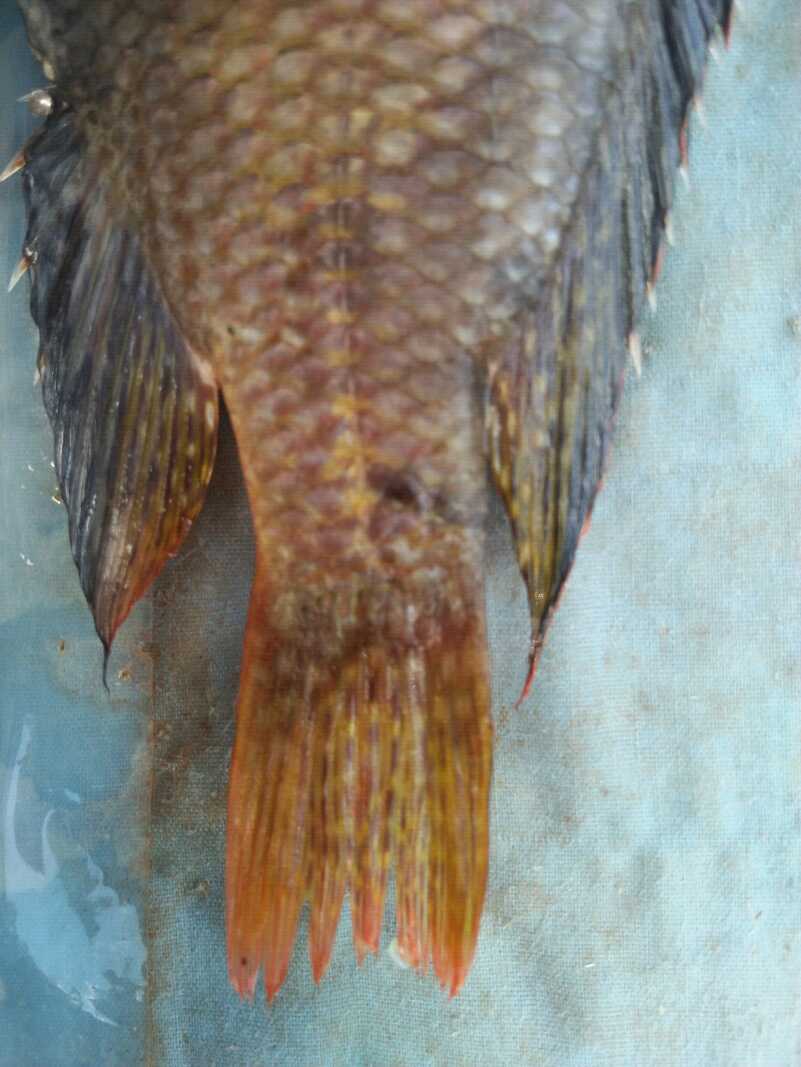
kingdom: Animalia
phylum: Chordata
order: Perciformes
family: Cichlidae
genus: Oreochromis
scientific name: Oreochromis spilurus
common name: Sabaki tilapia
